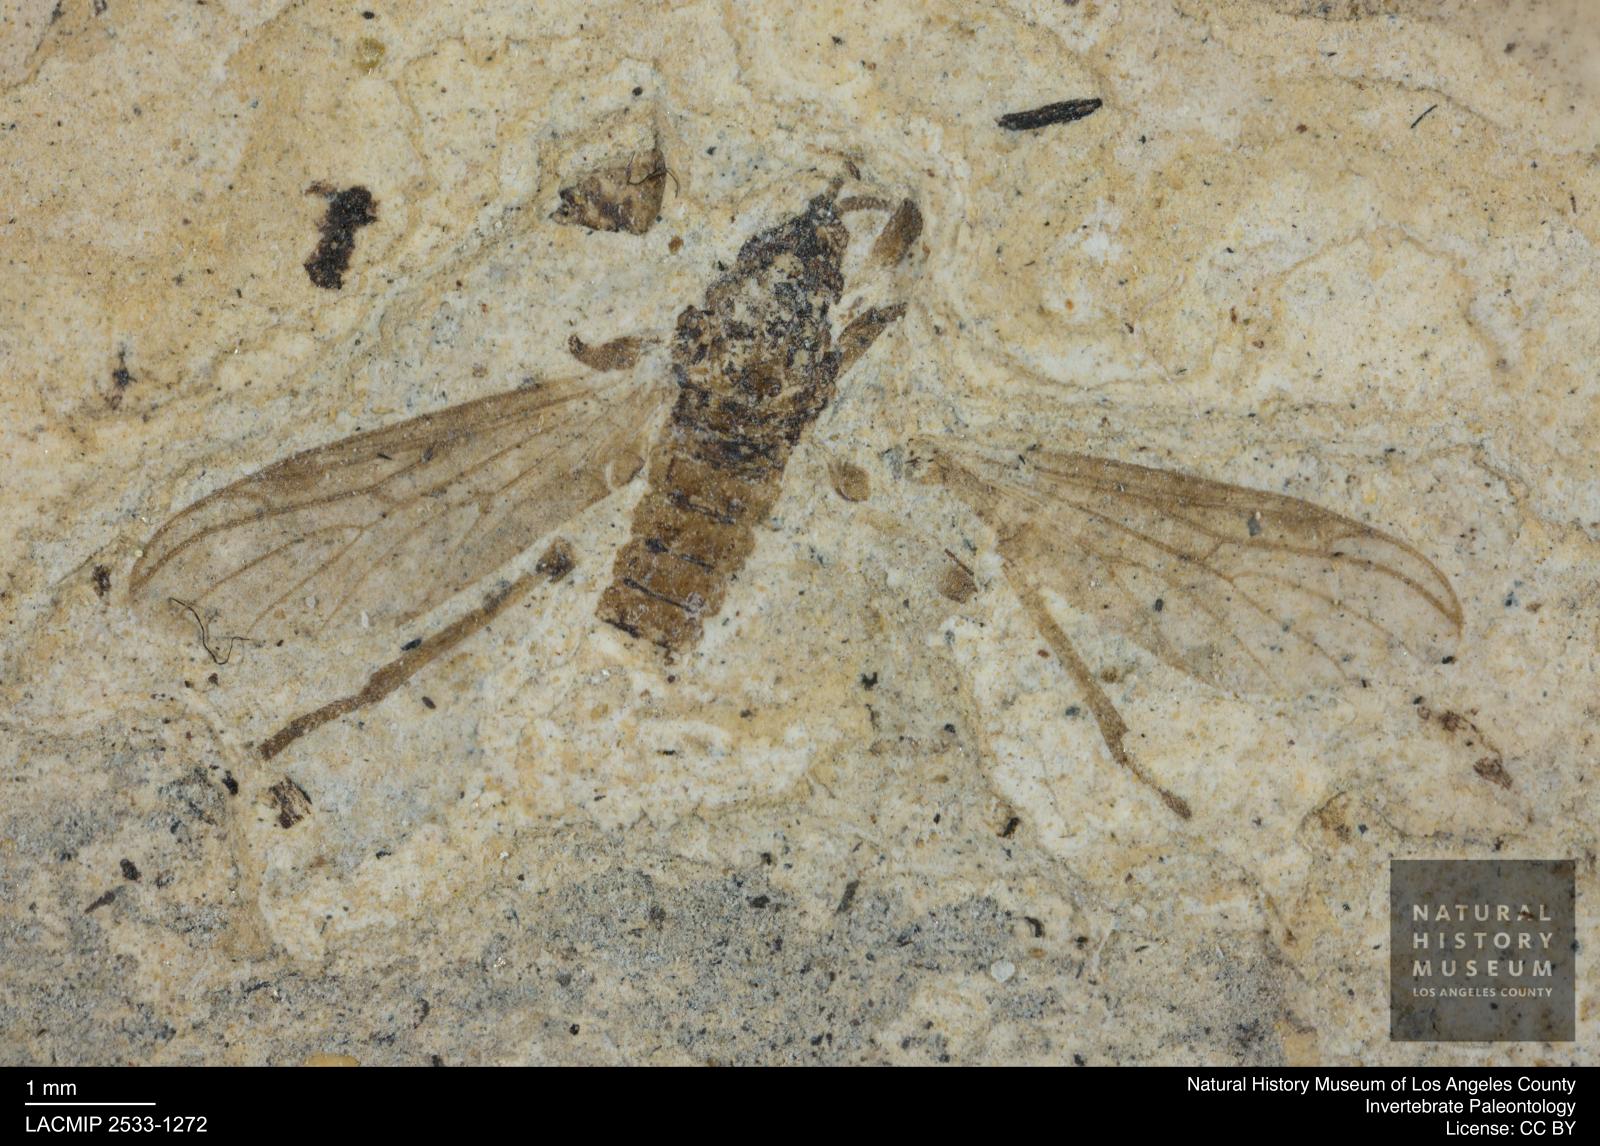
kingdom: Animalia
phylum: Arthropoda
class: Insecta
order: Diptera
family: Bibionidae
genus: Plecia
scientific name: Plecia
